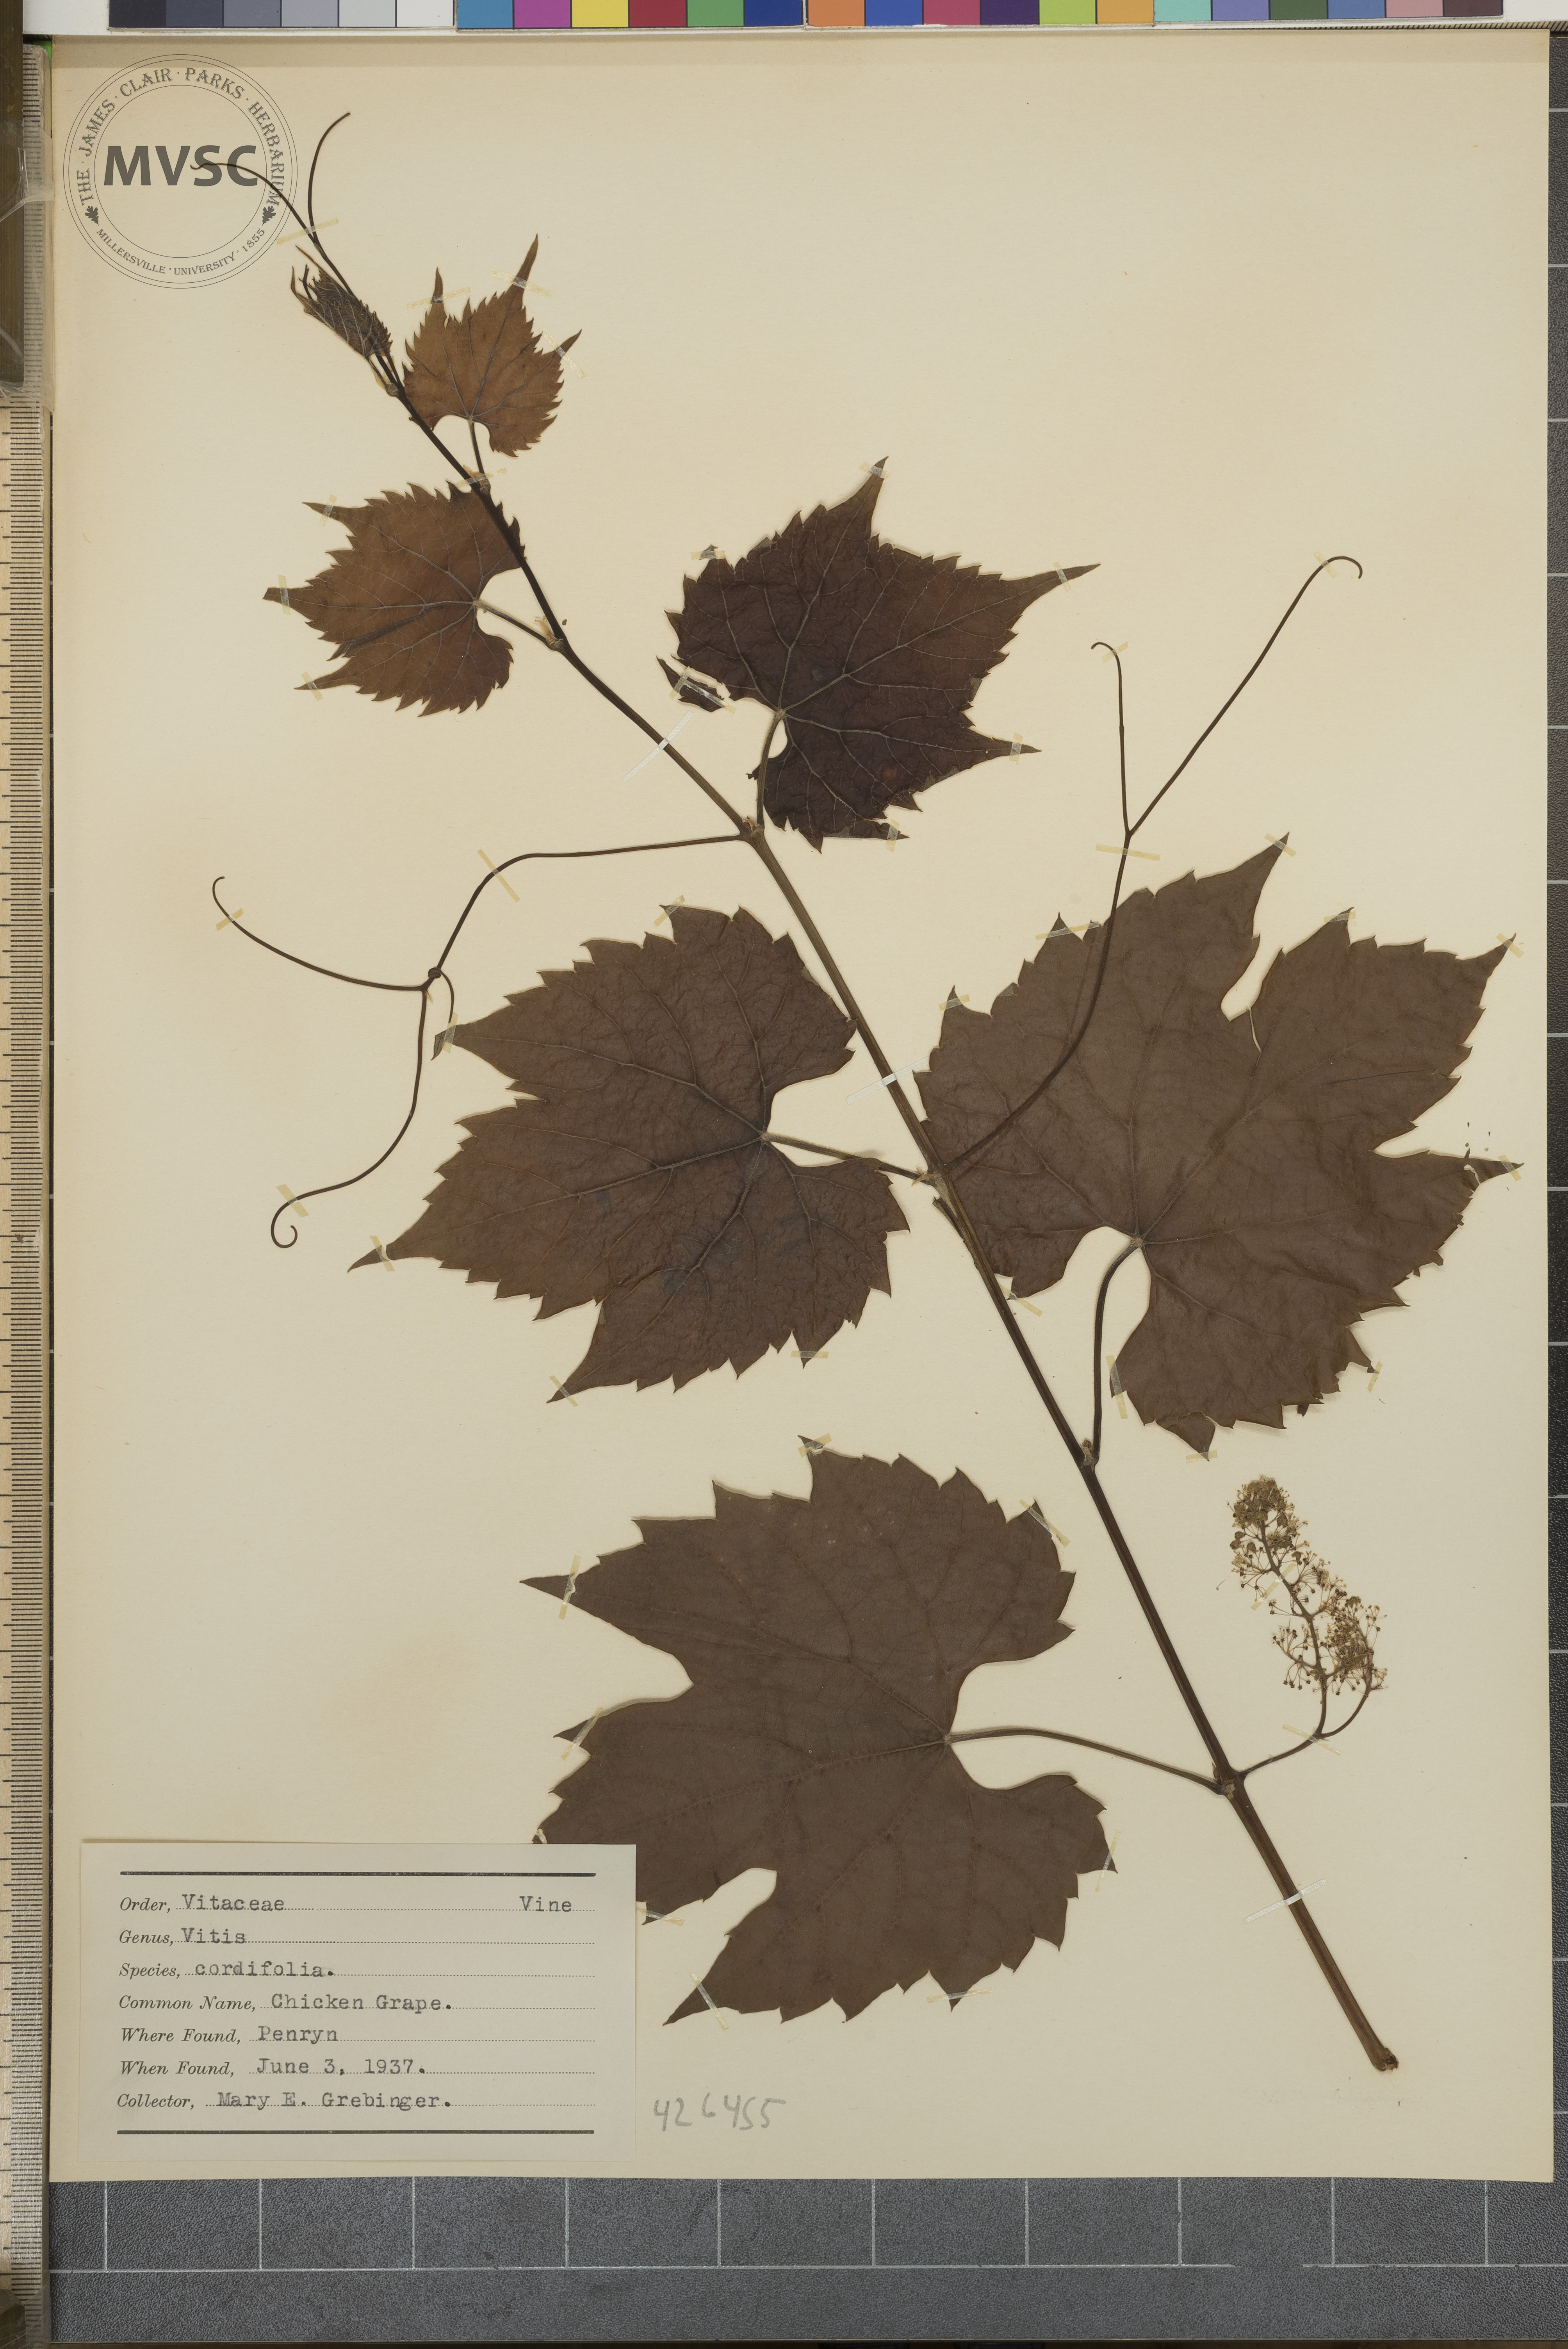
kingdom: Plantae
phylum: Tracheophyta
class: Magnoliopsida
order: Vitales
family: Vitaceae
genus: Vitis
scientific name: Vitis riparia
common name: Chicken grape
